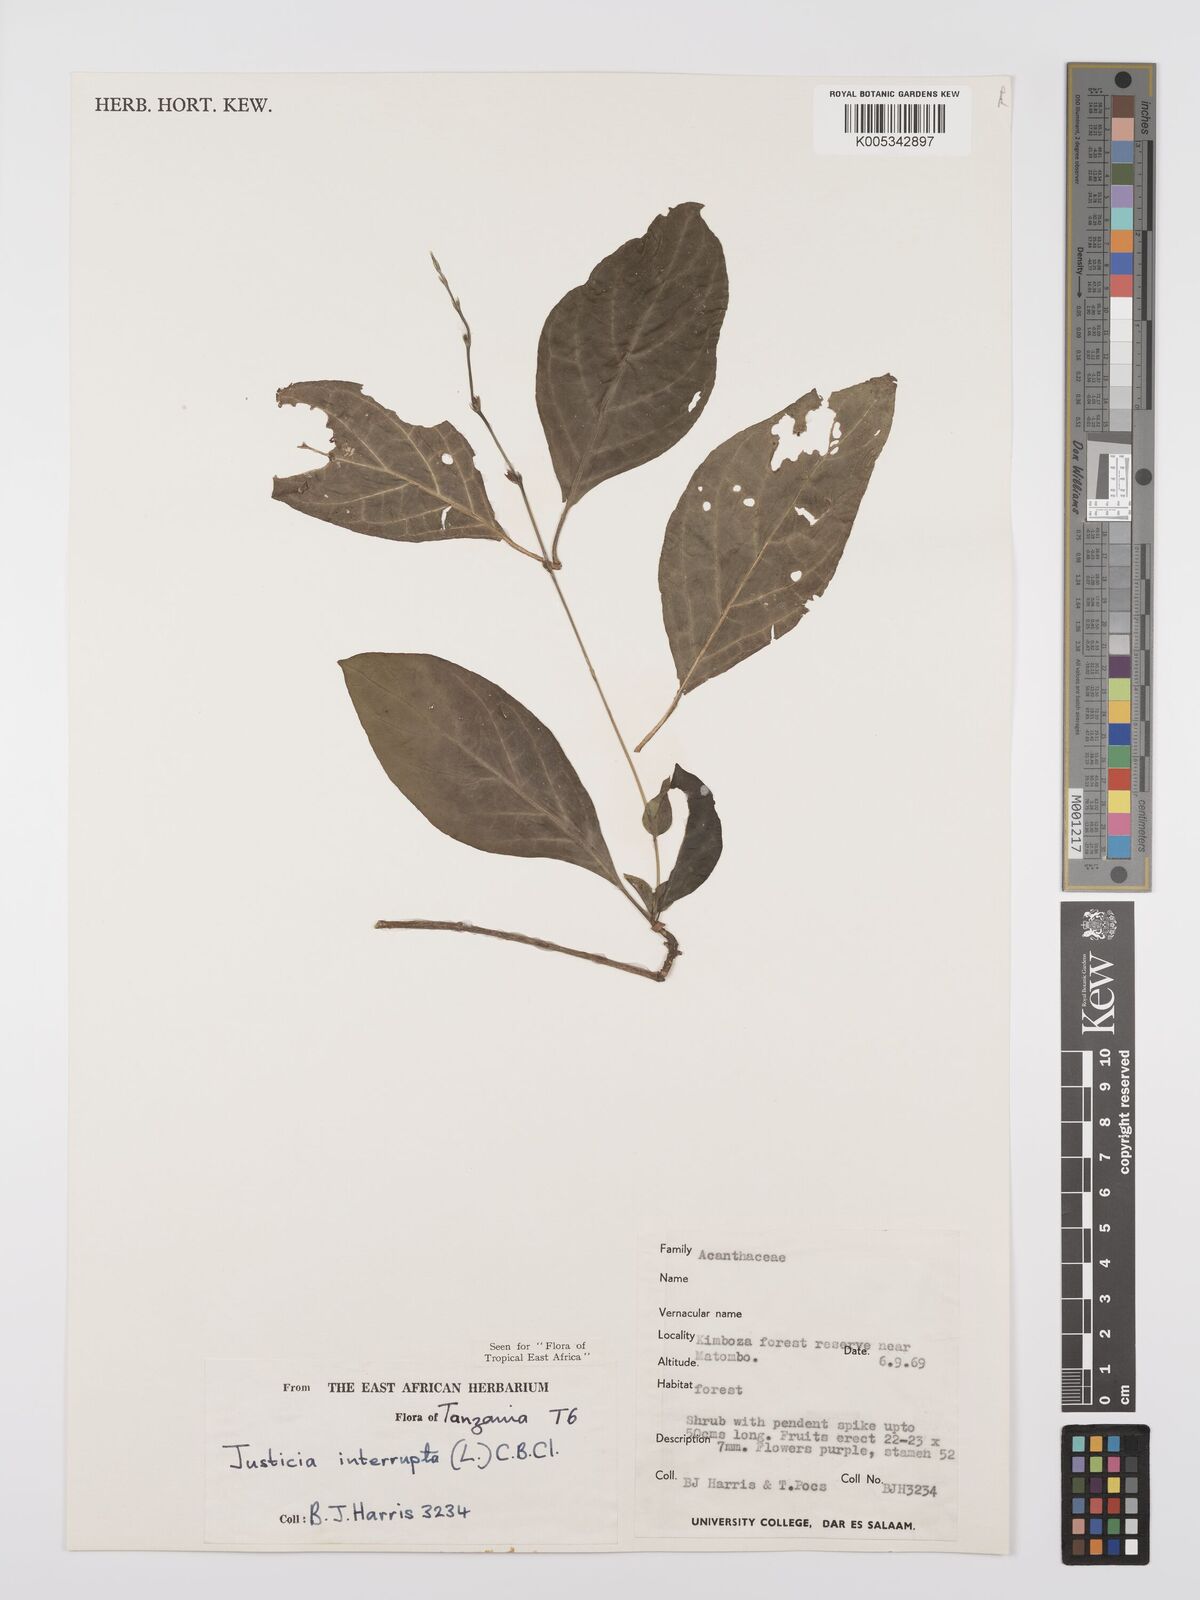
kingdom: Plantae
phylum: Tracheophyta
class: Magnoliopsida
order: Lamiales
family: Acanthaceae
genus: Justicia
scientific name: Justicia plectranthoides
